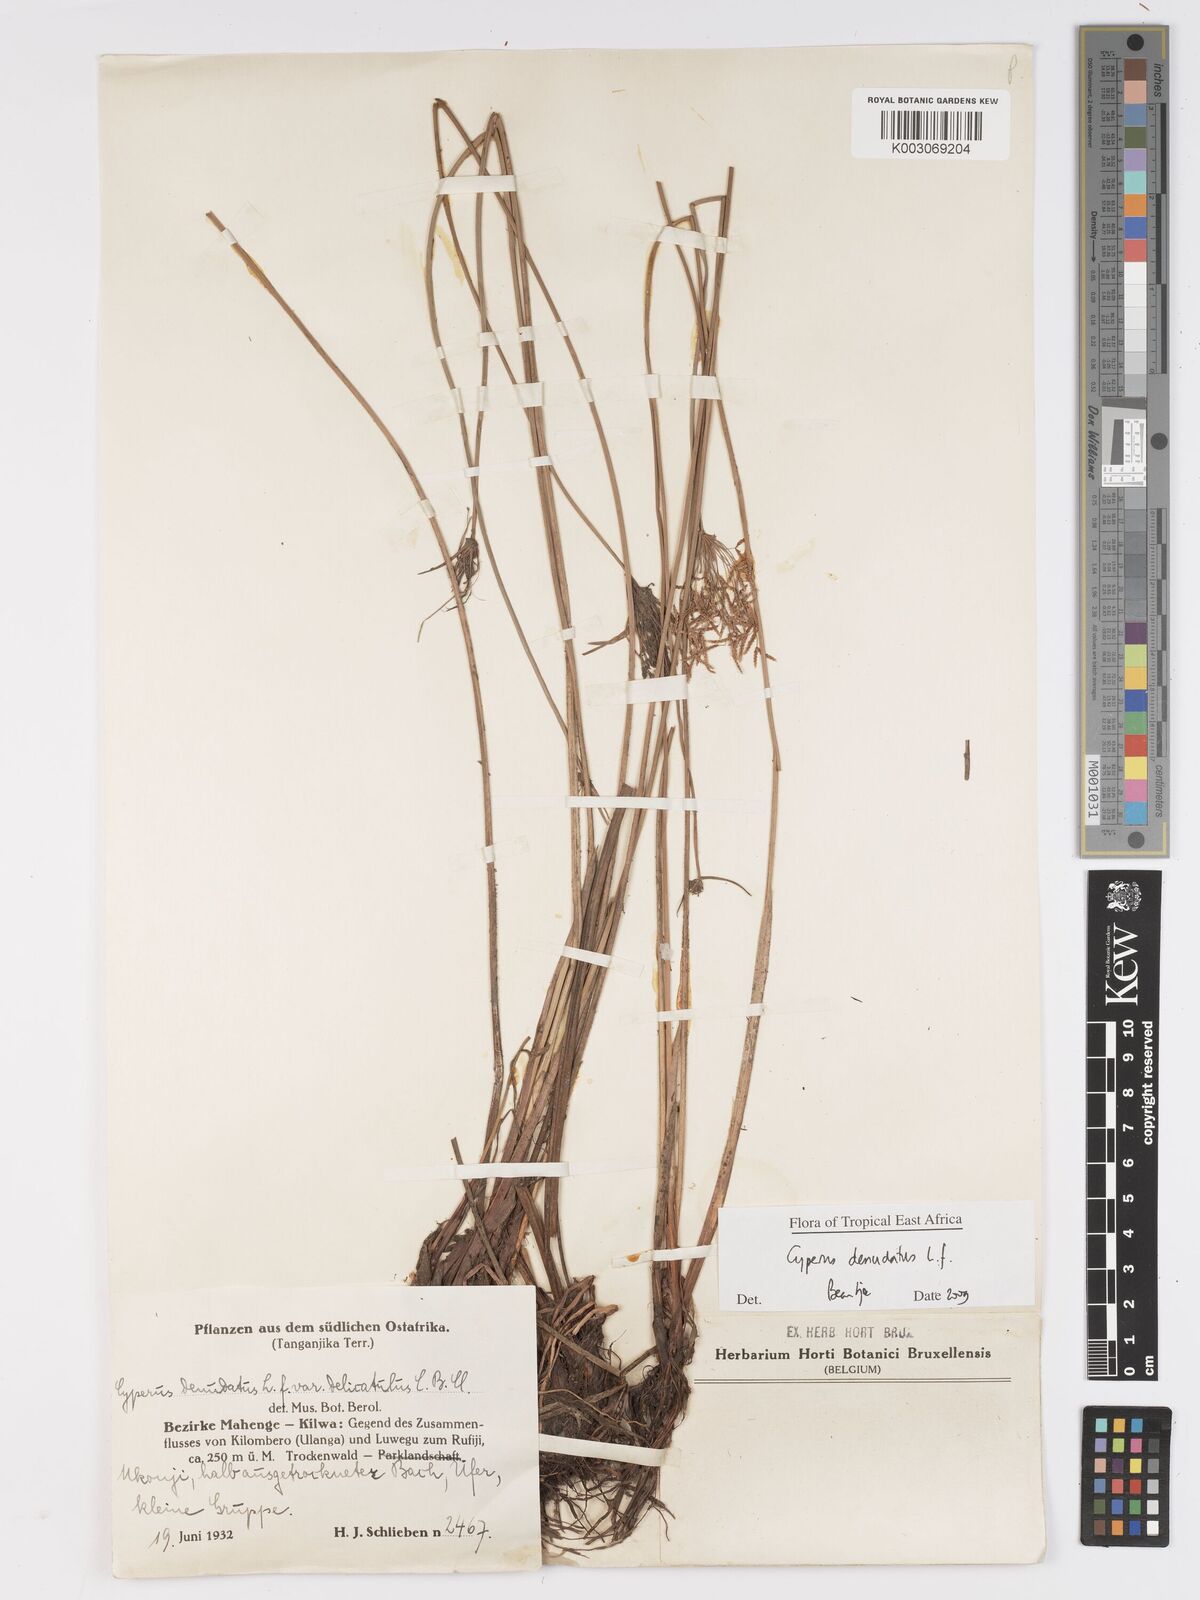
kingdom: Plantae
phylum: Tracheophyta
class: Liliopsida
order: Poales
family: Cyperaceae
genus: Cyperus
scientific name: Cyperus denudatus
